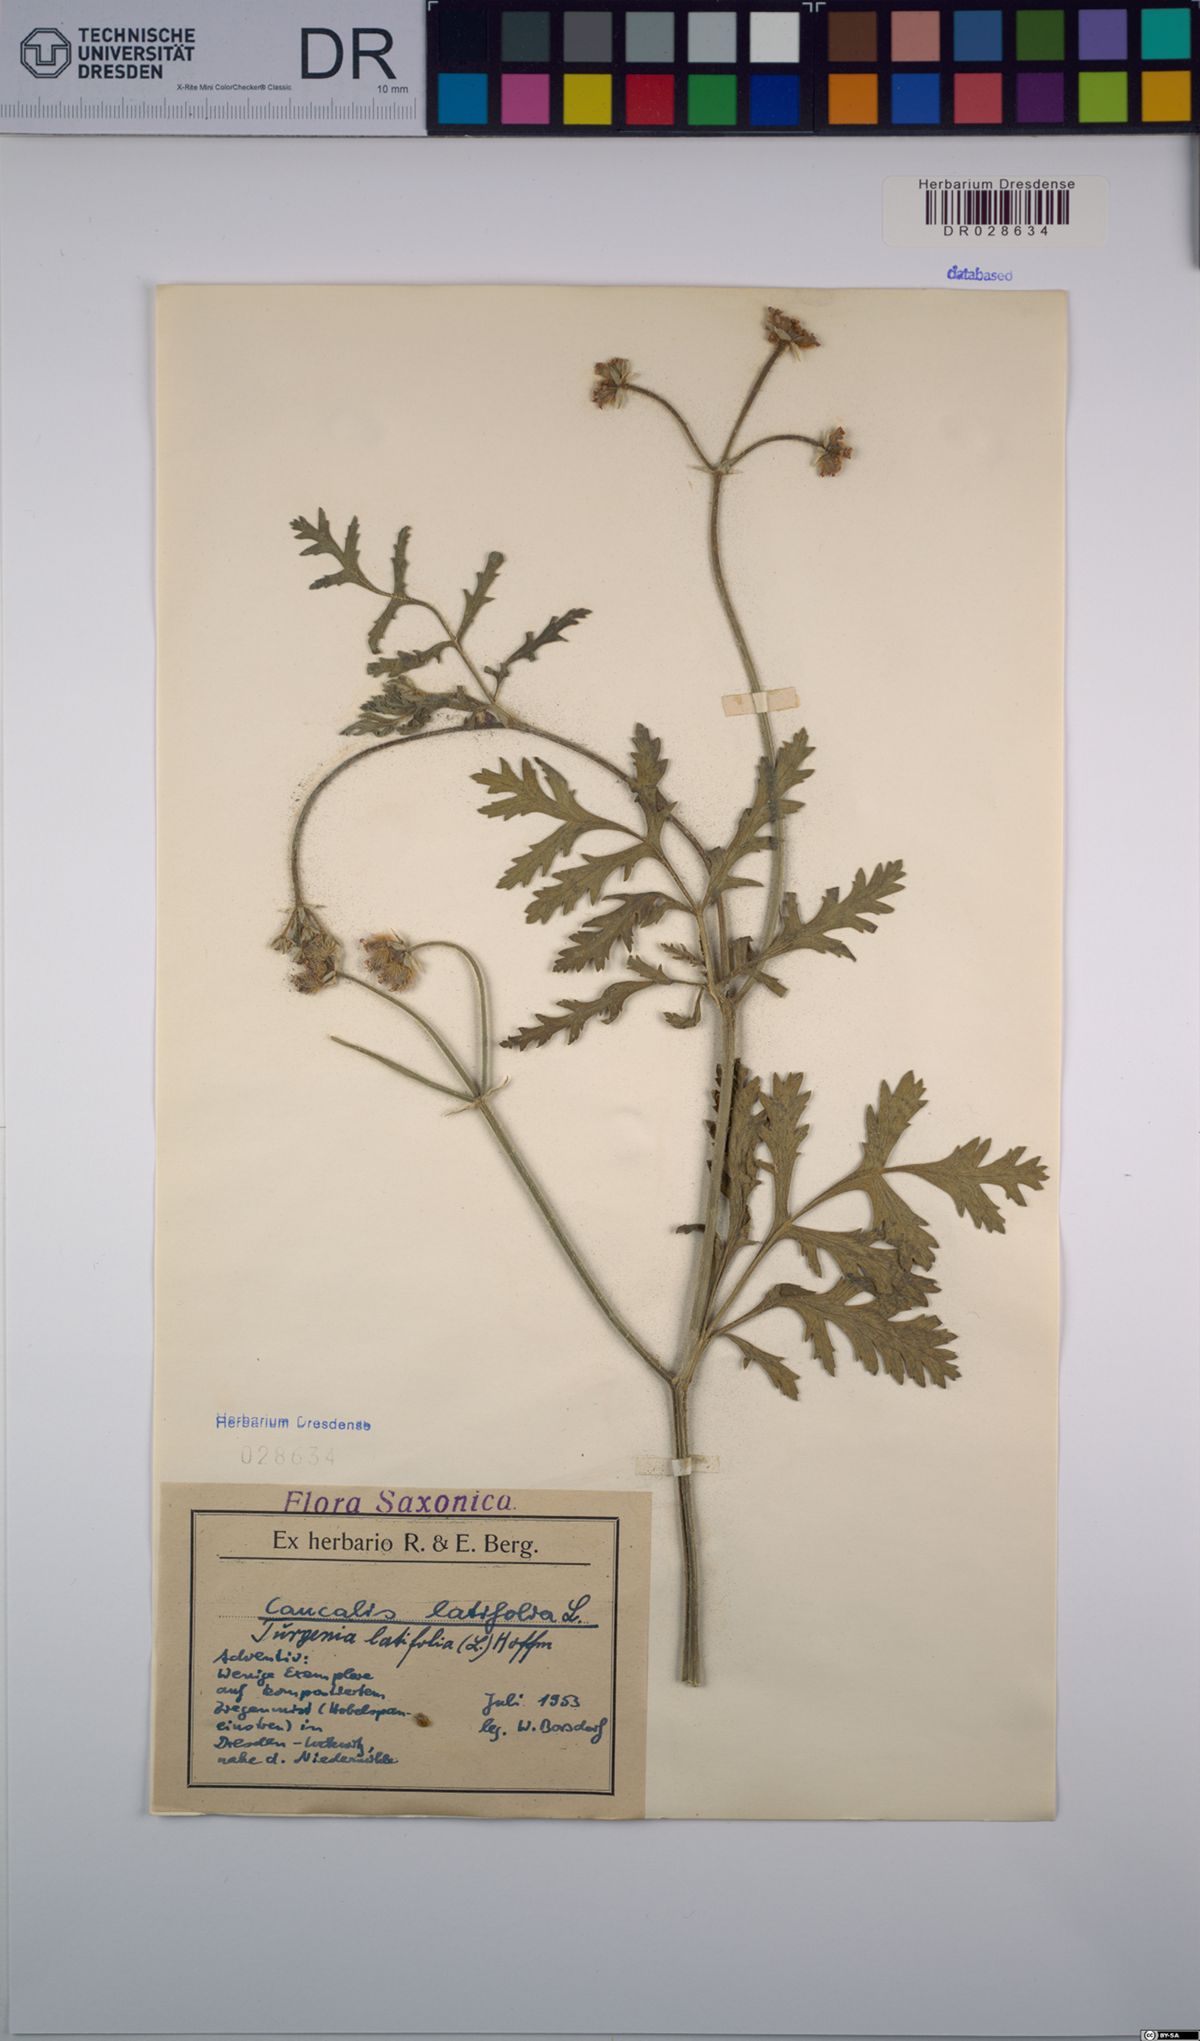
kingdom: Plantae
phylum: Tracheophyta
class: Magnoliopsida
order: Apiales
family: Apiaceae
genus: Turgenia
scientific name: Turgenia latifolia
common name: Greater bur-parsley
